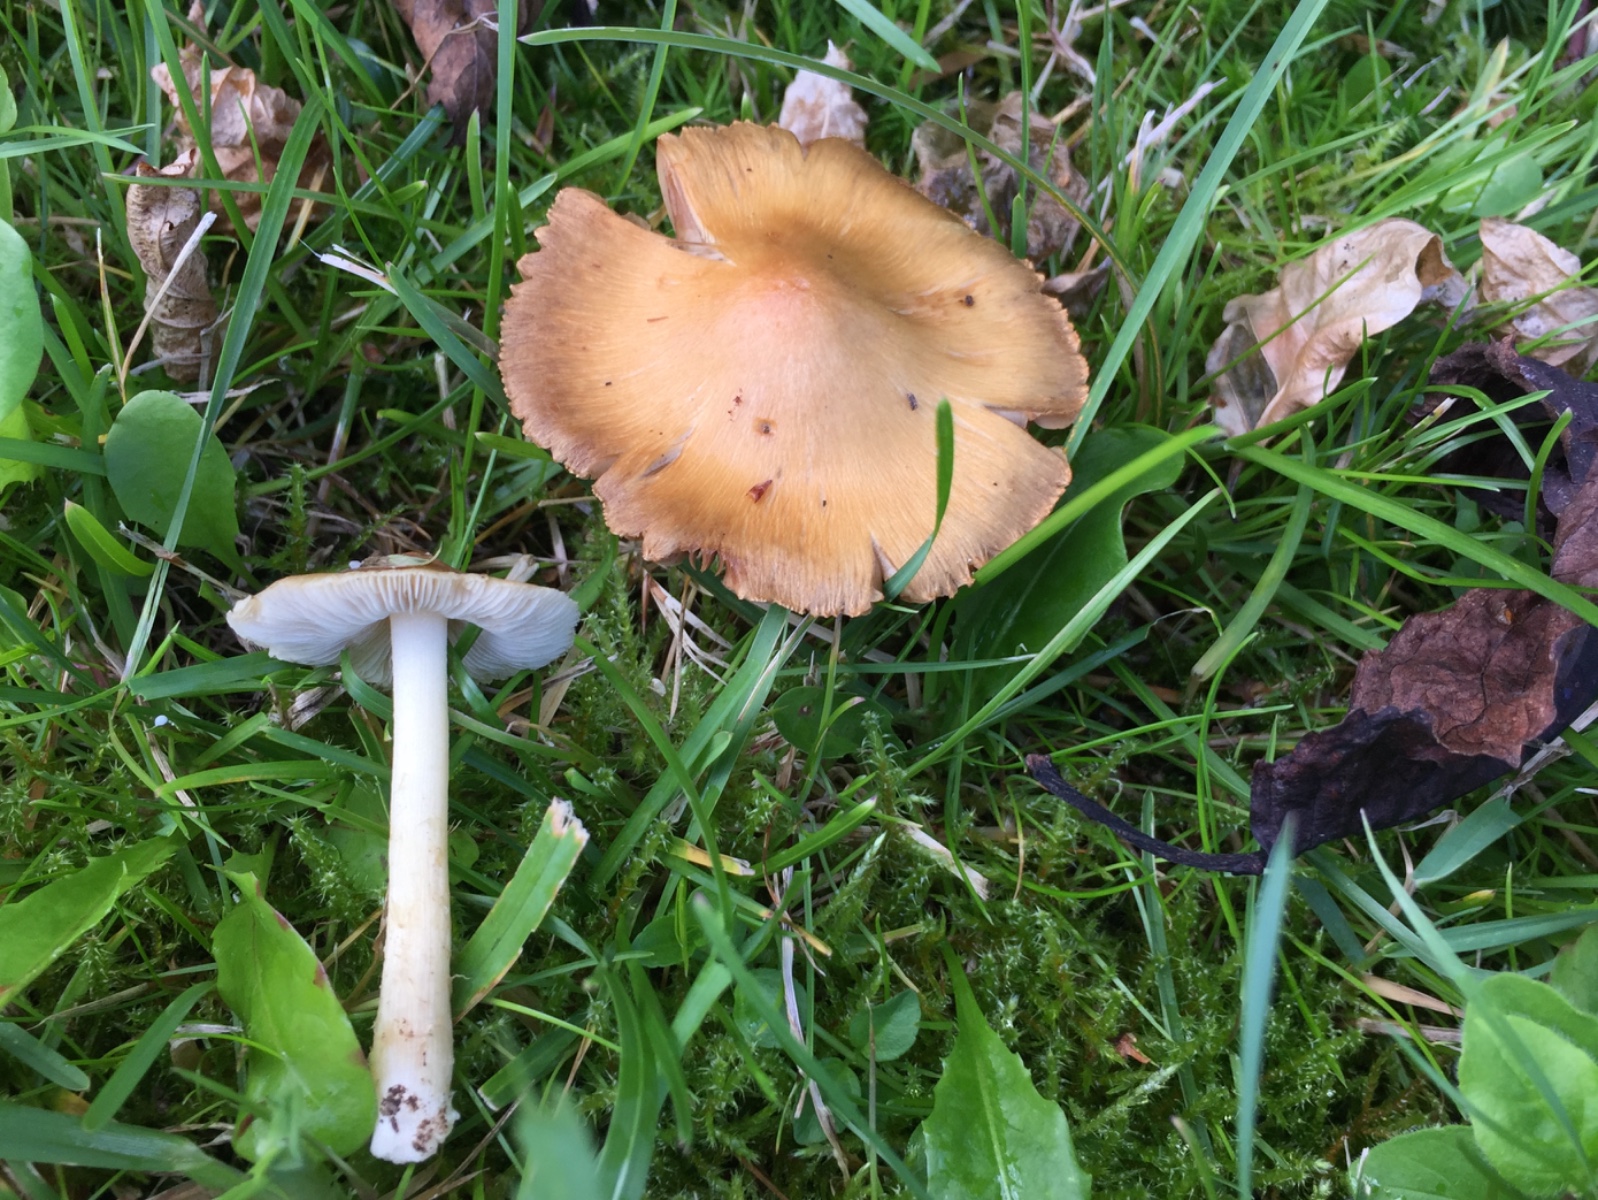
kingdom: Fungi
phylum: Basidiomycota
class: Agaricomycetes
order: Agaricales
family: Inocybaceae
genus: Inosperma
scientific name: Inosperma
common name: strågul trævlhat
